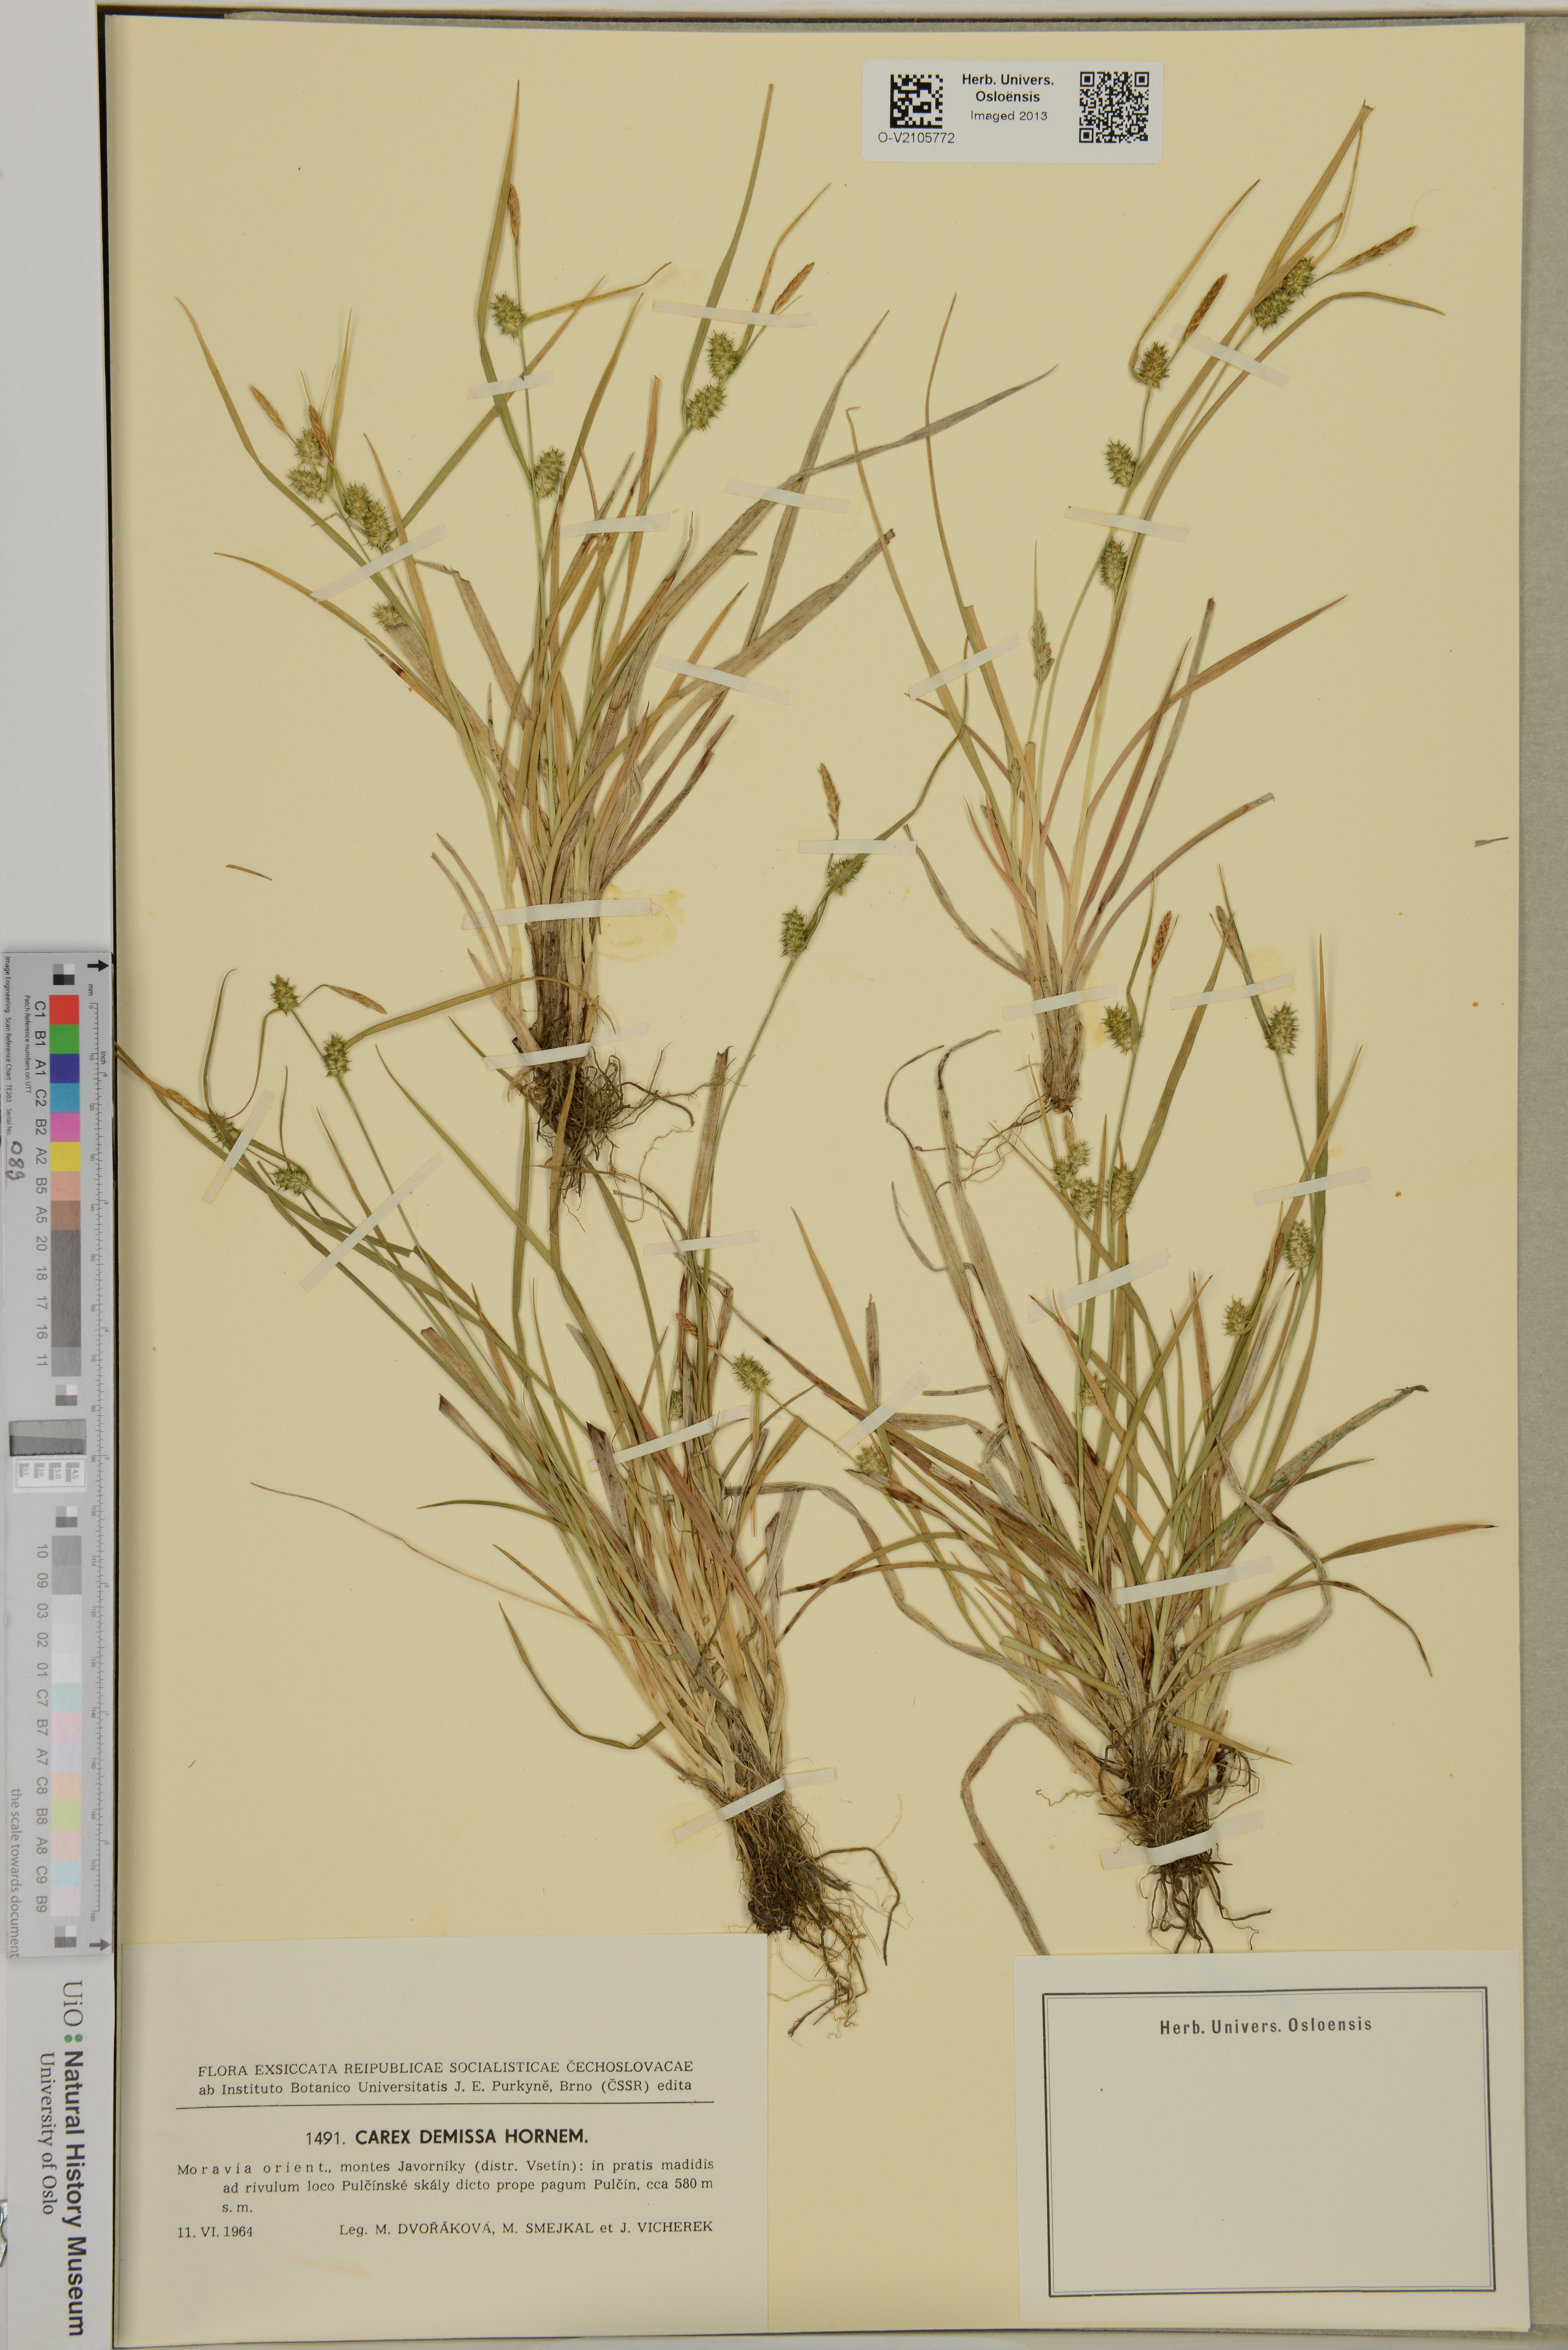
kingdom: Plantae
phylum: Tracheophyta
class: Liliopsida
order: Poales
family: Cyperaceae
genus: Carex
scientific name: Carex demissa
